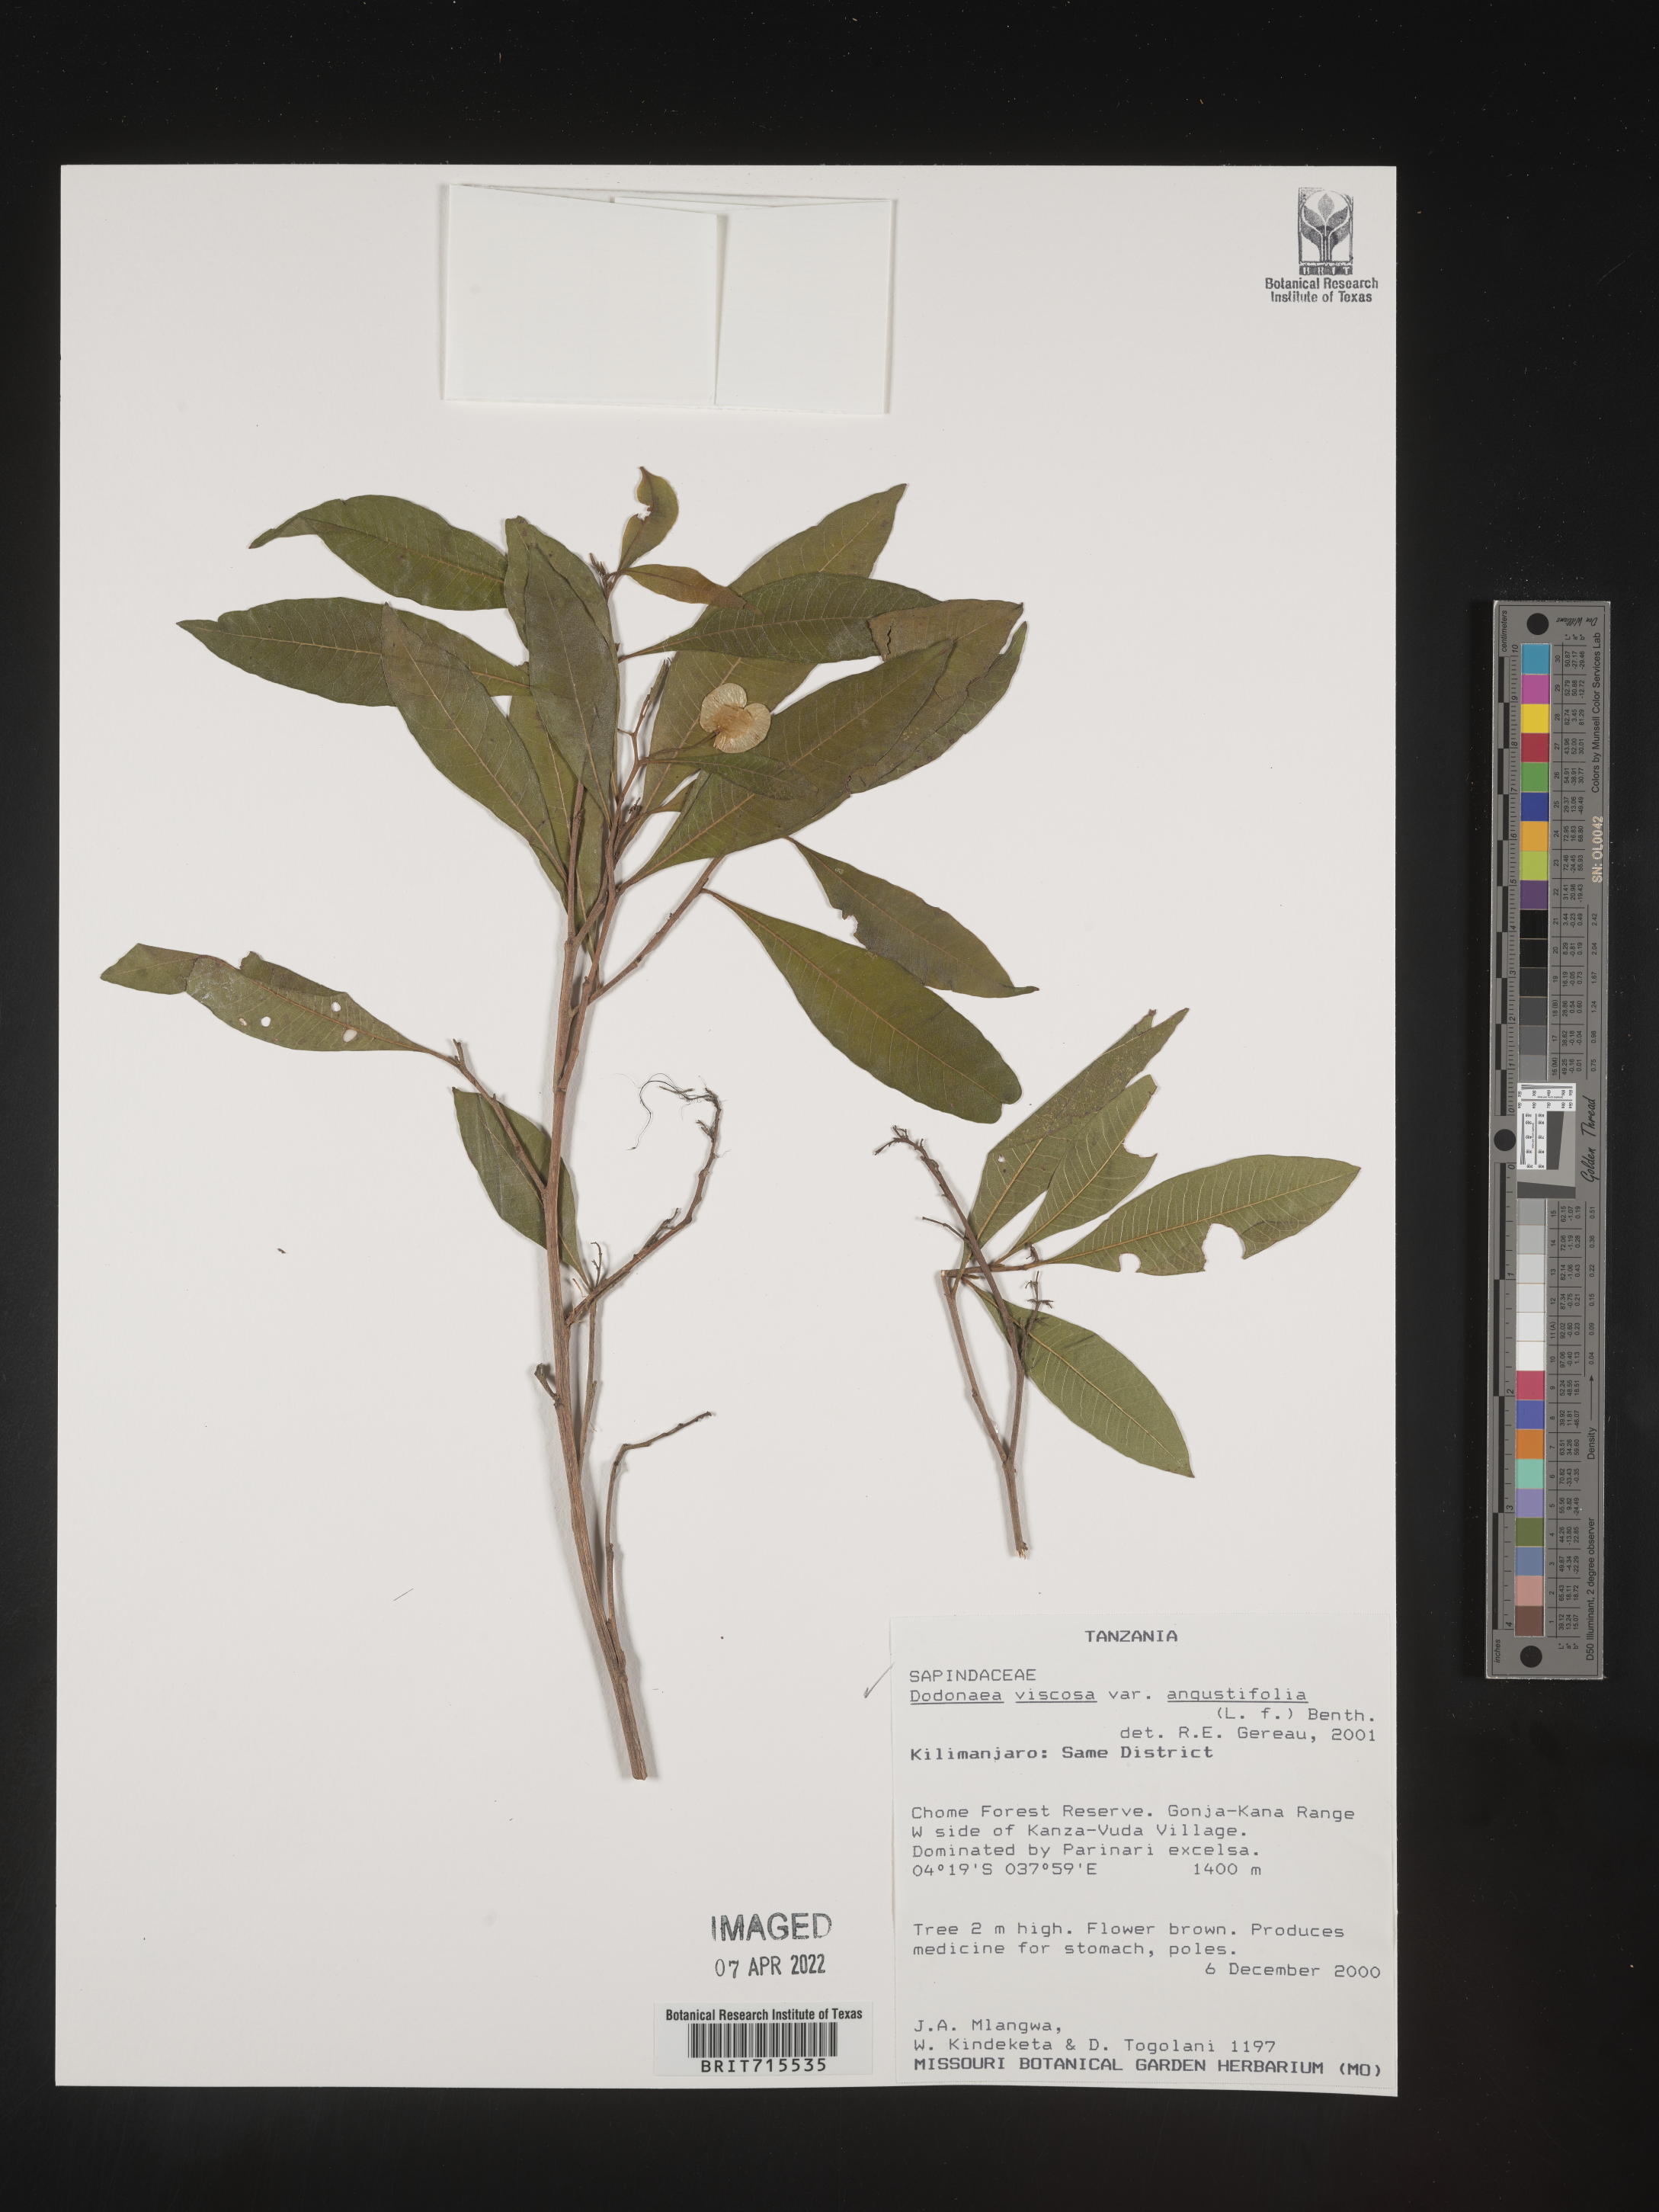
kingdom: Plantae
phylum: Tracheophyta
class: Magnoliopsida
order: Sapindales
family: Sapindaceae
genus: Dodonaea
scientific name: Dodonaea viscosa
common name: Hopbush
